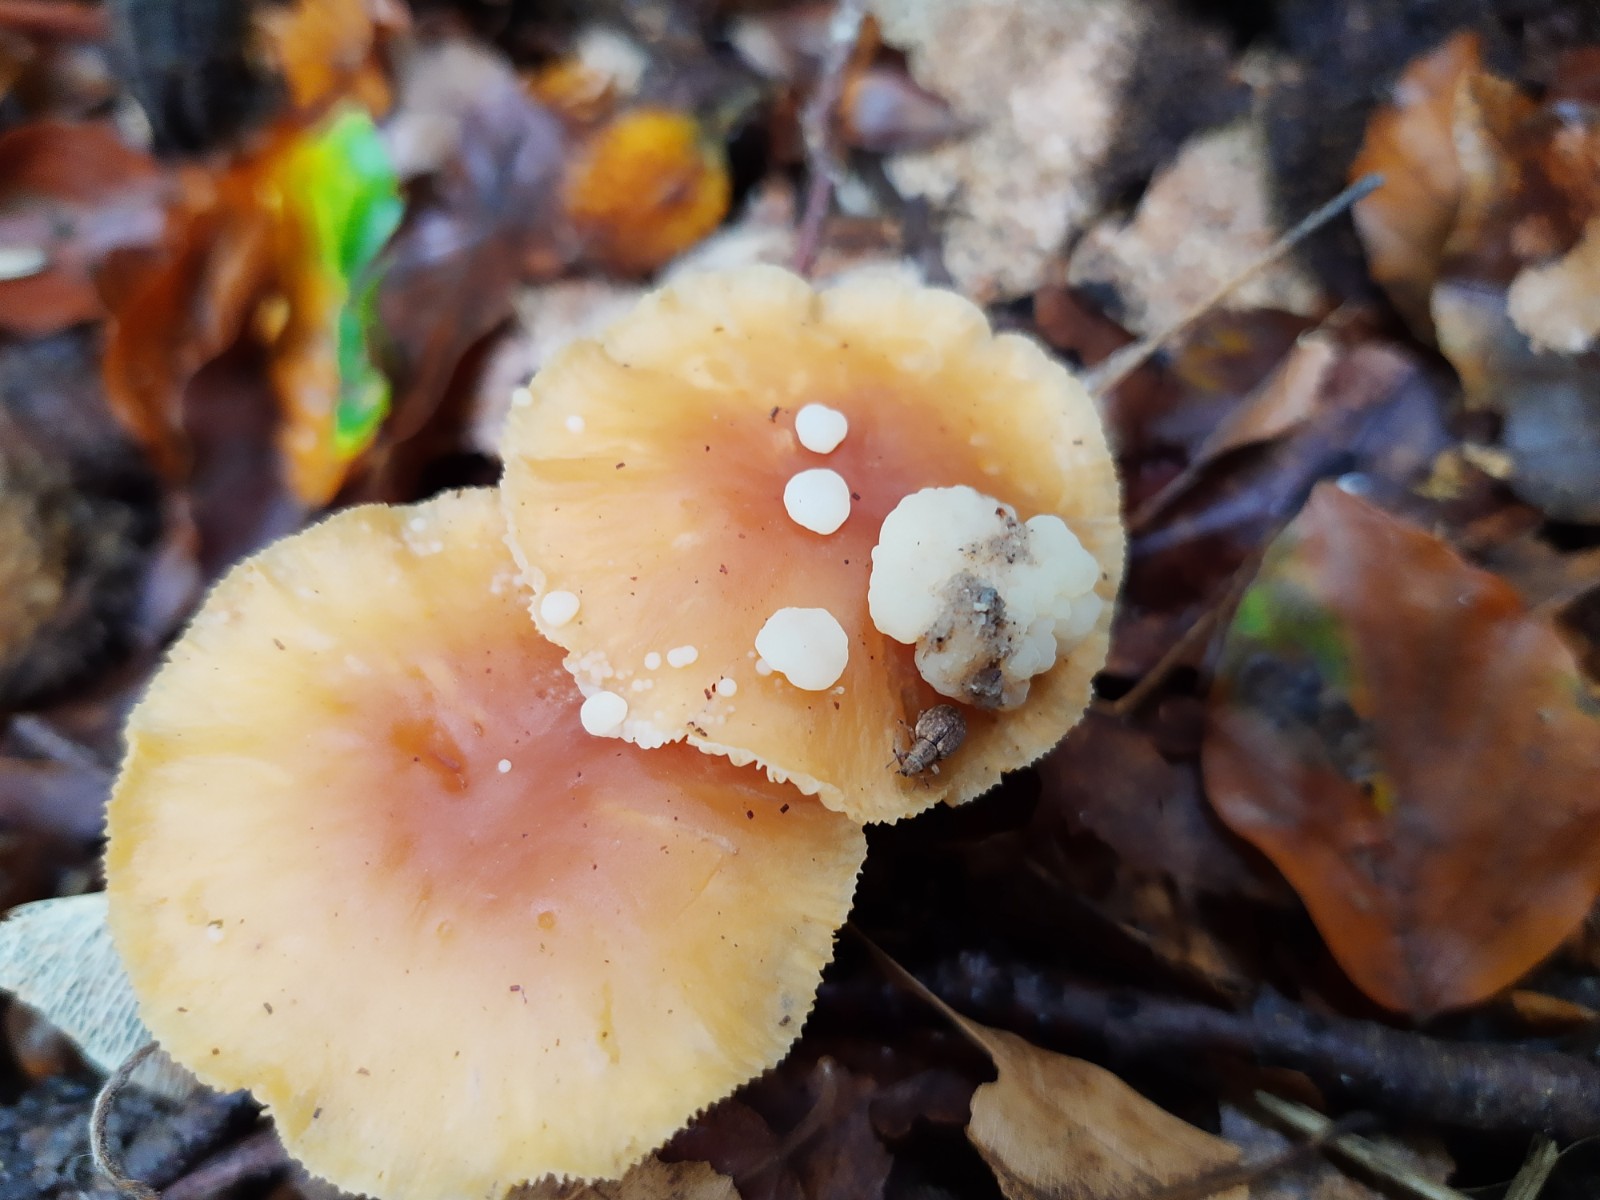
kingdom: Fungi
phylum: Basidiomycota
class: Tremellomycetes
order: Filobasidiales
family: Filobasidiaceae
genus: Syzygospora
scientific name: Syzygospora tumefaciens
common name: fladhatte-snyltehjerne
